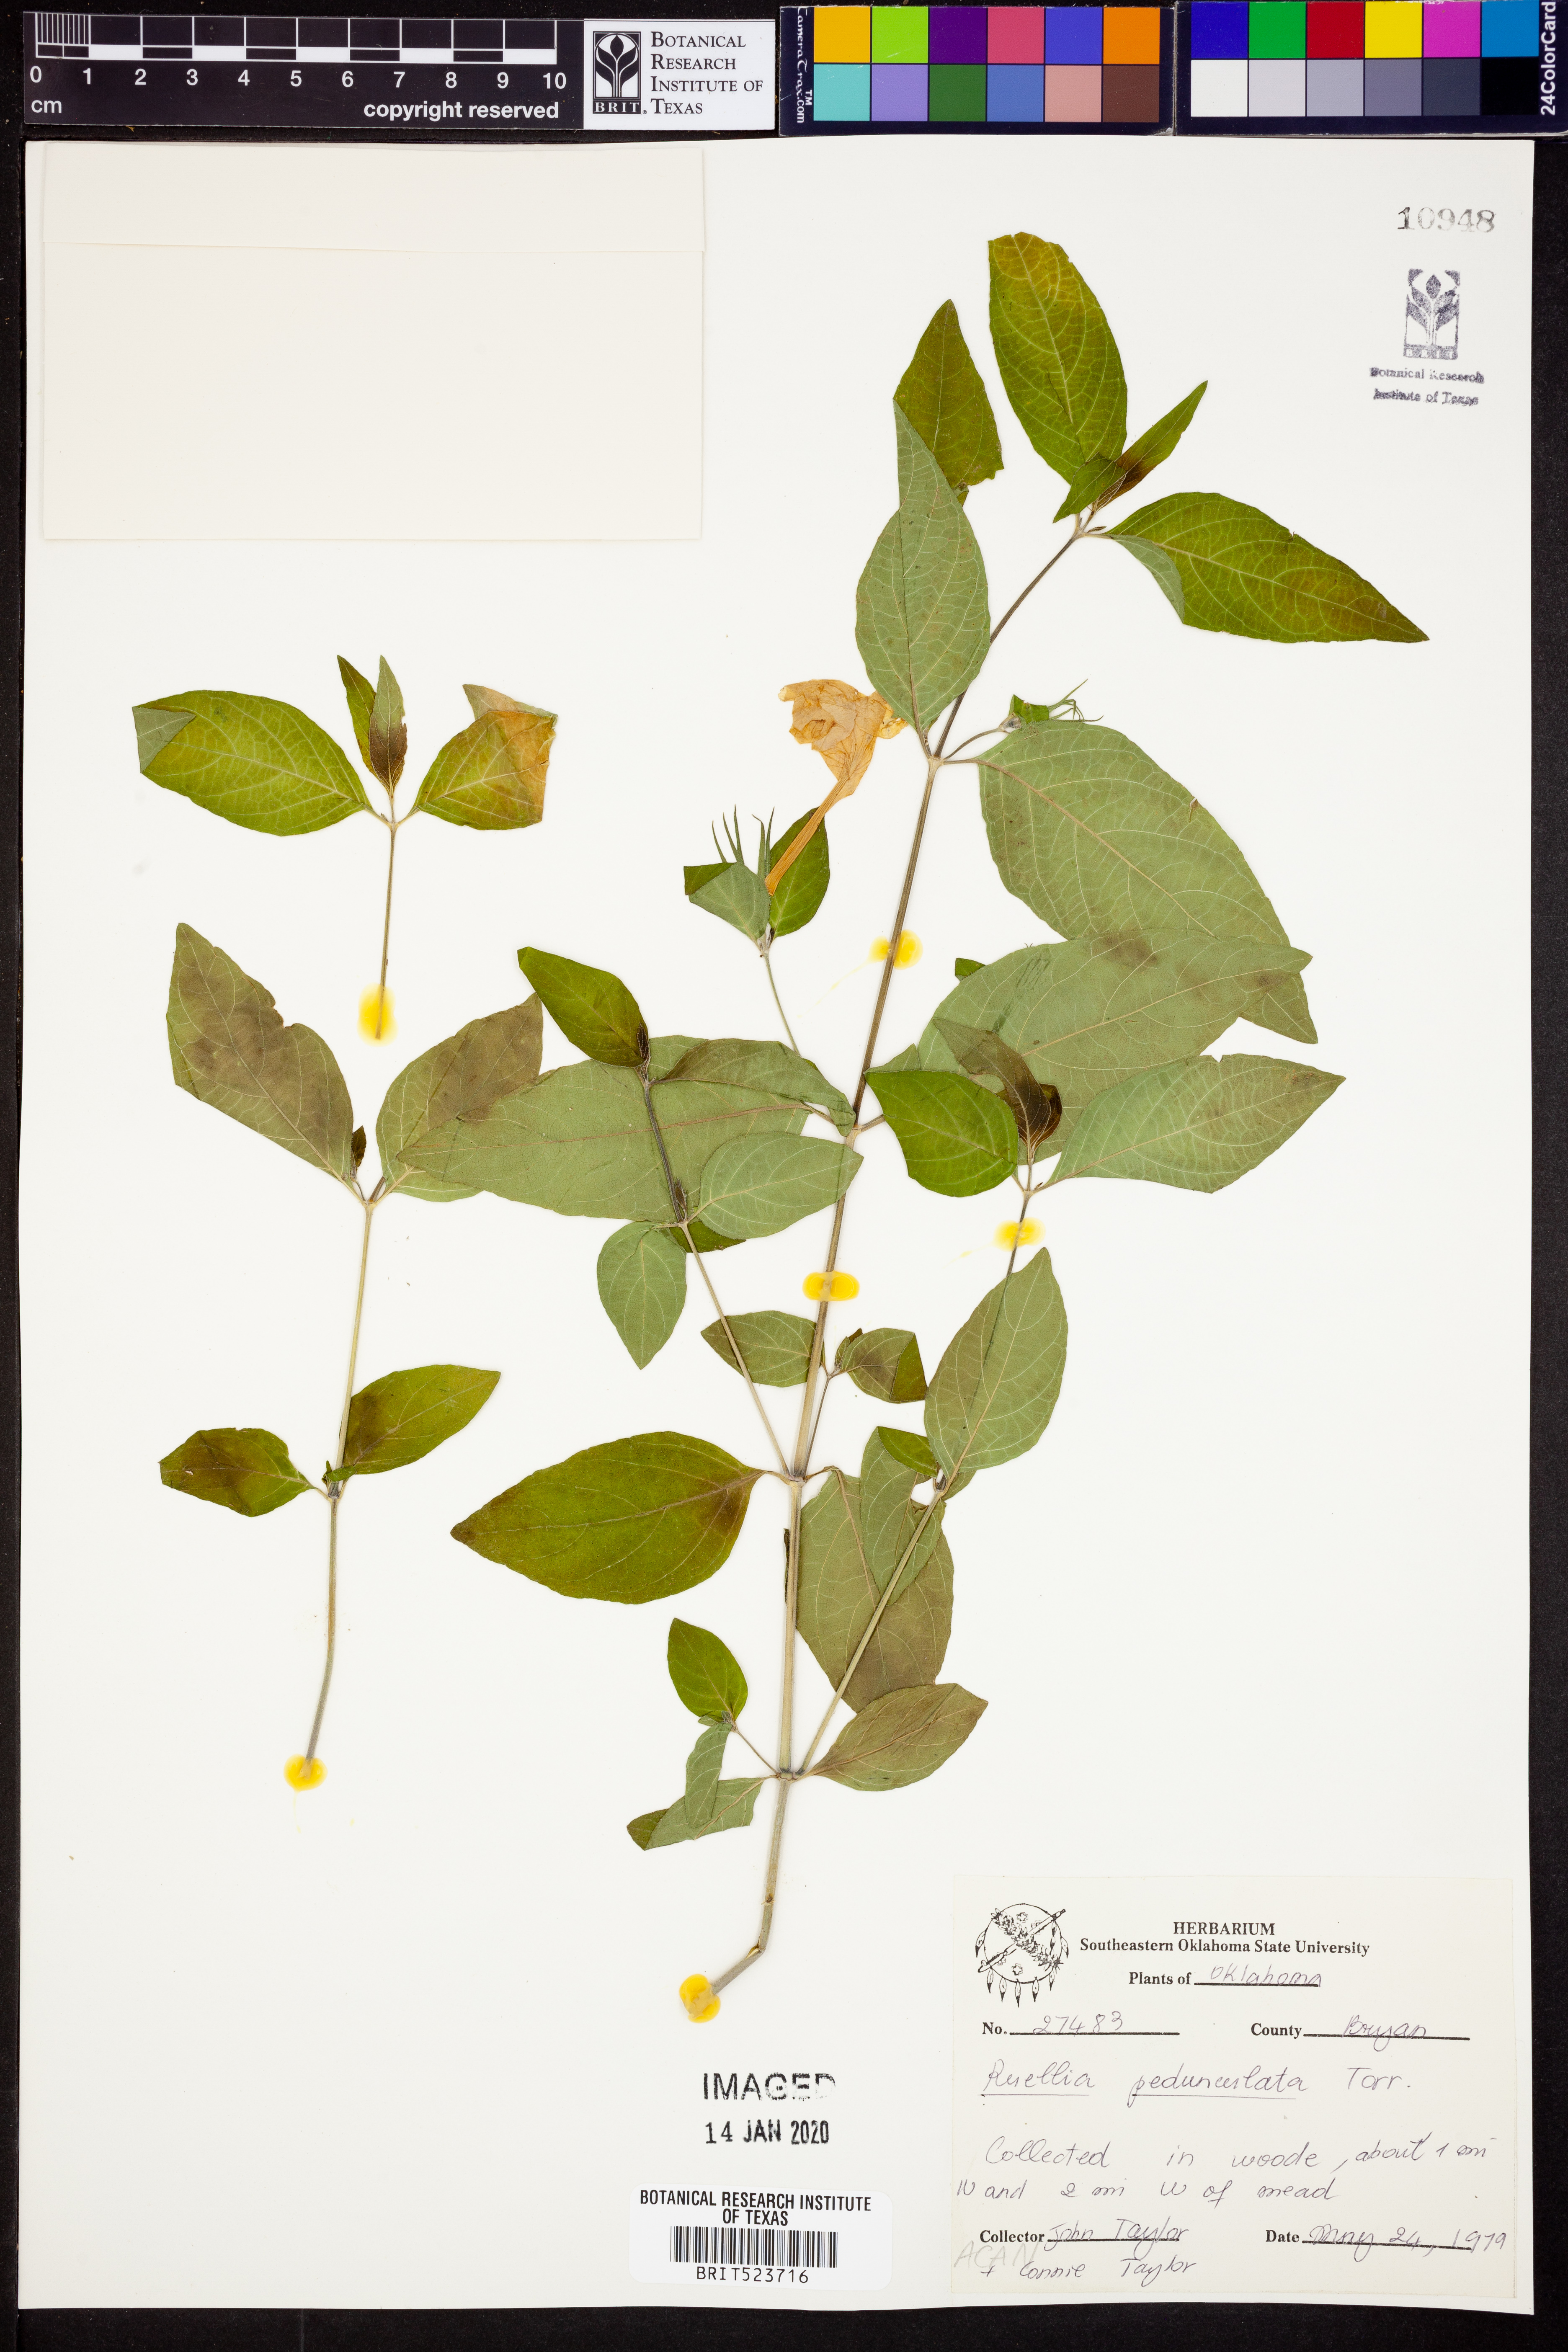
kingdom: Plantae
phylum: Tracheophyta
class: Magnoliopsida
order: Lamiales
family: Acanthaceae
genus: Ruellia
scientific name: Ruellia pedunculata
